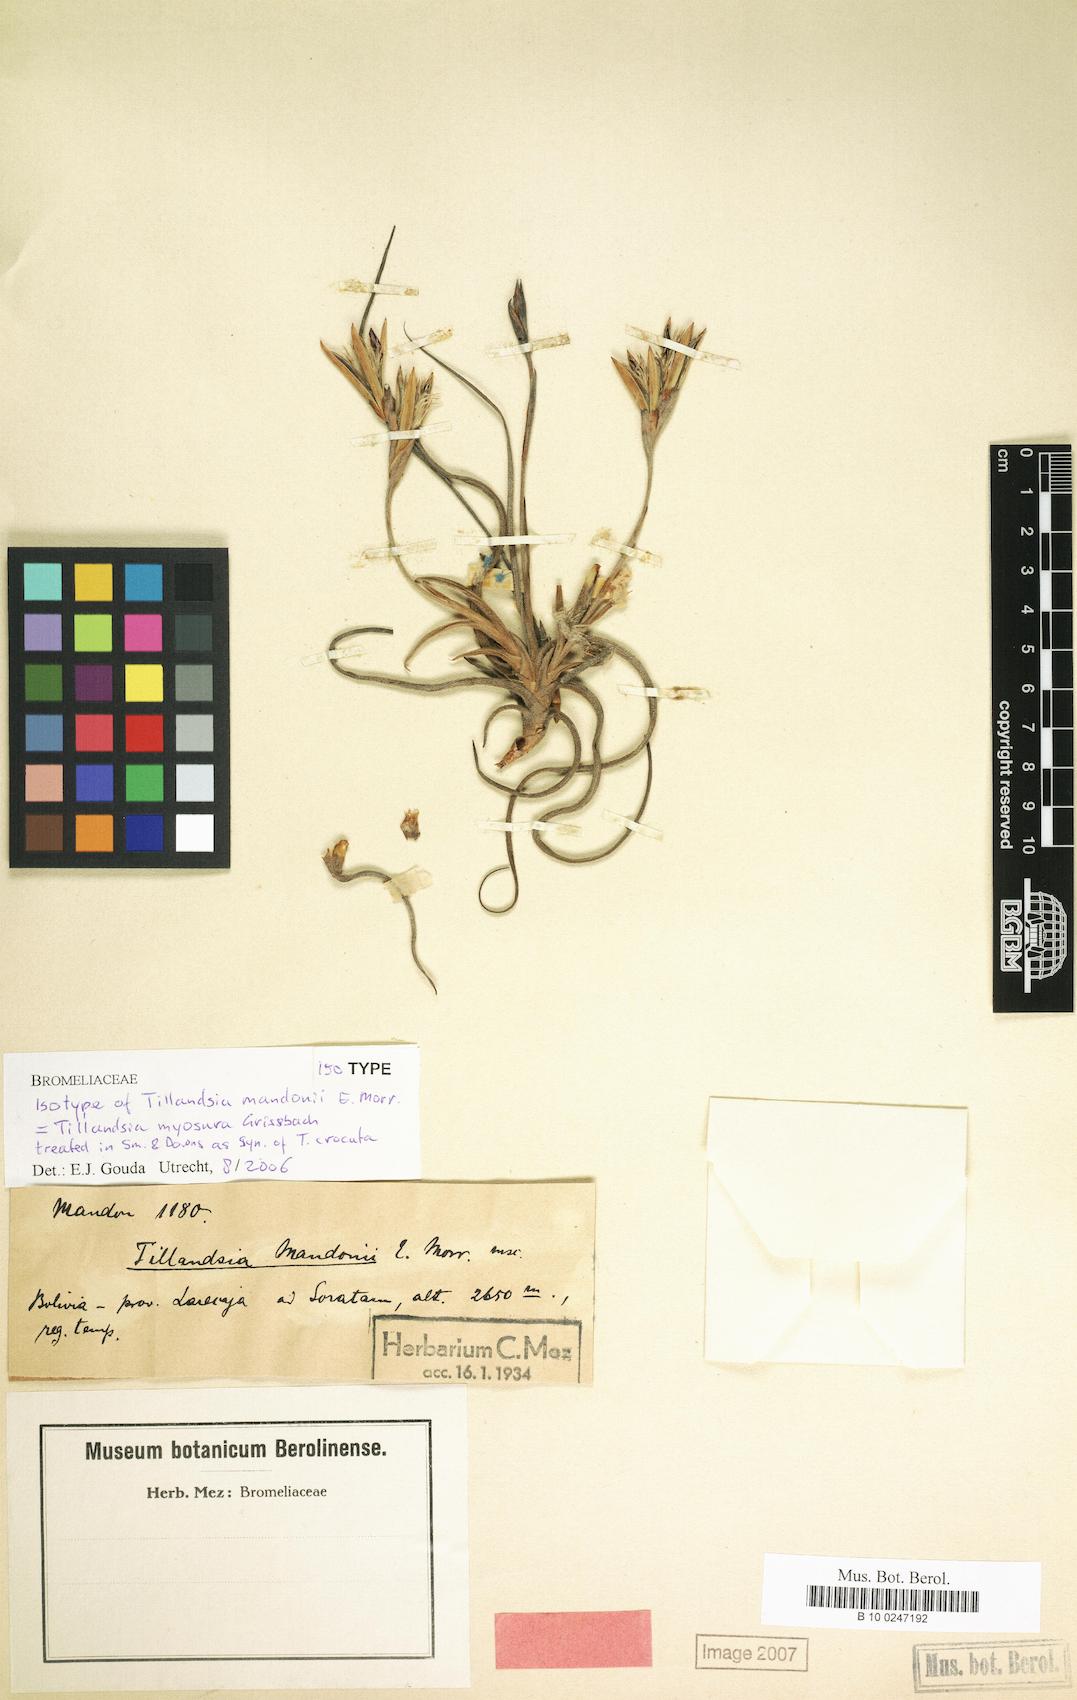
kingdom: Plantae
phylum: Tracheophyta
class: Liliopsida
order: Poales
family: Bromeliaceae
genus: Tillandsia
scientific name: Tillandsia crocata
